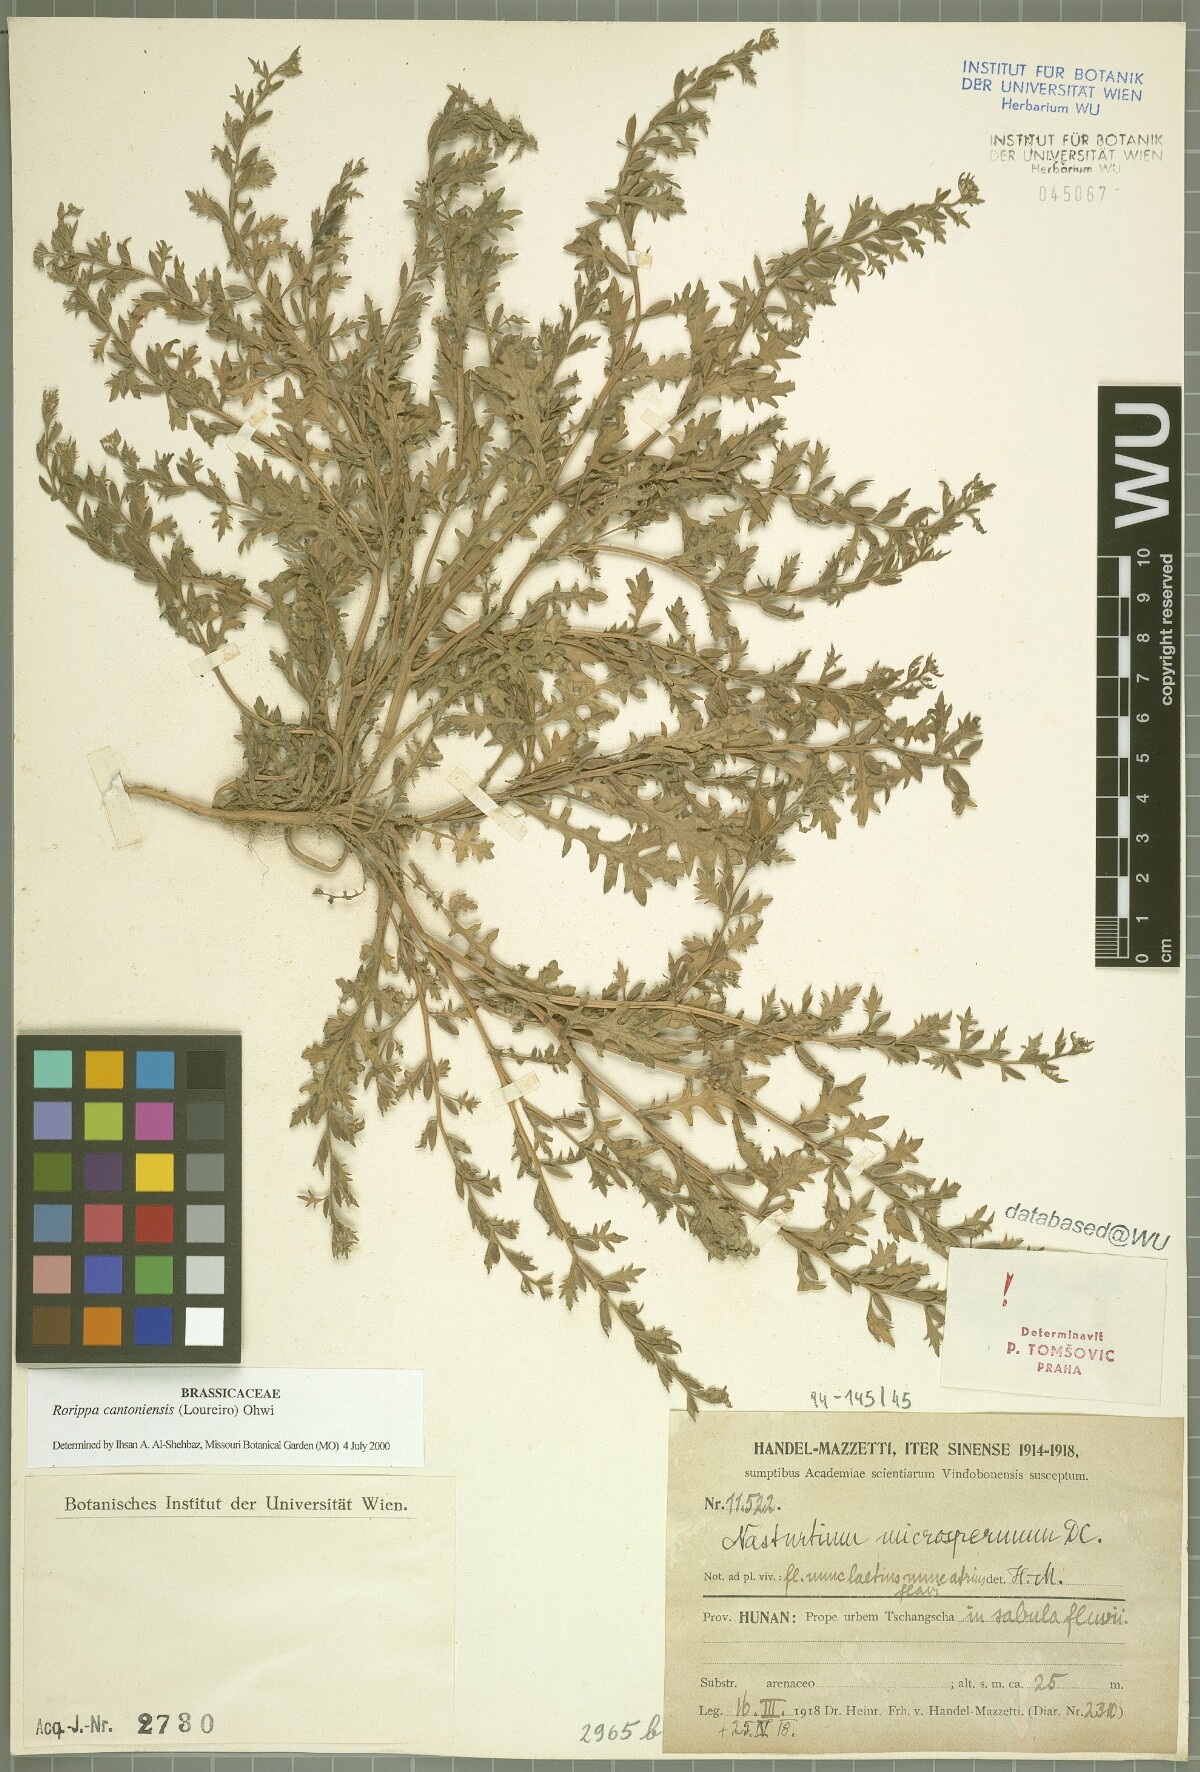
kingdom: Plantae
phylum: Tracheophyta
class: Magnoliopsida
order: Brassicales
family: Brassicaceae
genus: Rorippa
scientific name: Rorippa cantoniensis
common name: Chinese yellowcress
